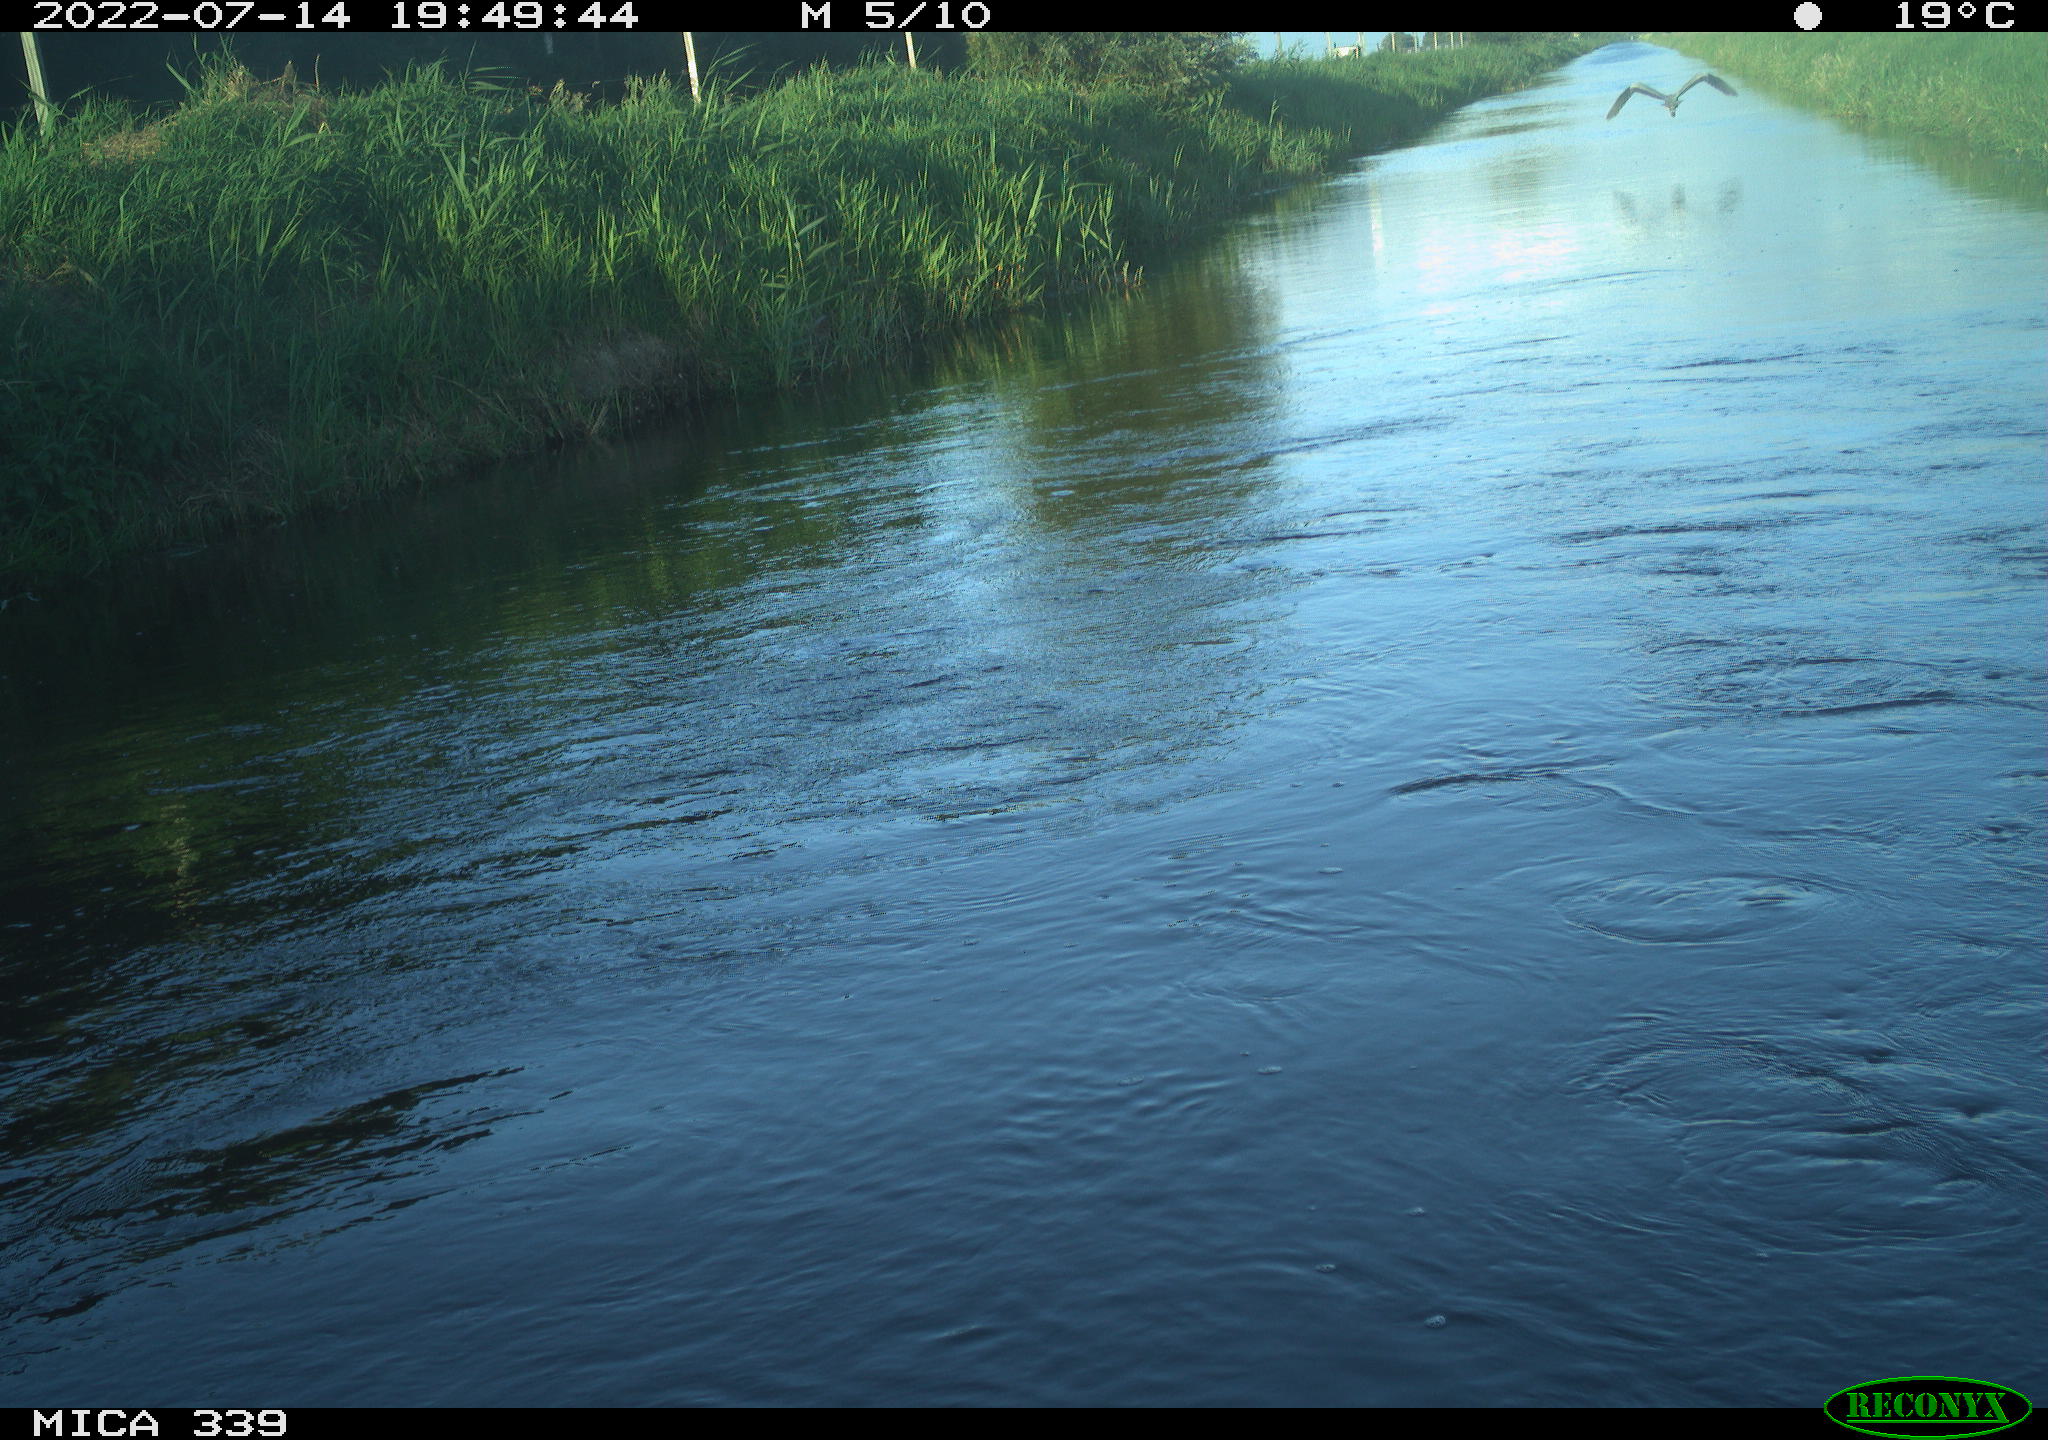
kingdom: Animalia
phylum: Chordata
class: Aves
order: Pelecaniformes
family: Ardeidae
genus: Ardea
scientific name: Ardea cinerea
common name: Grey heron
